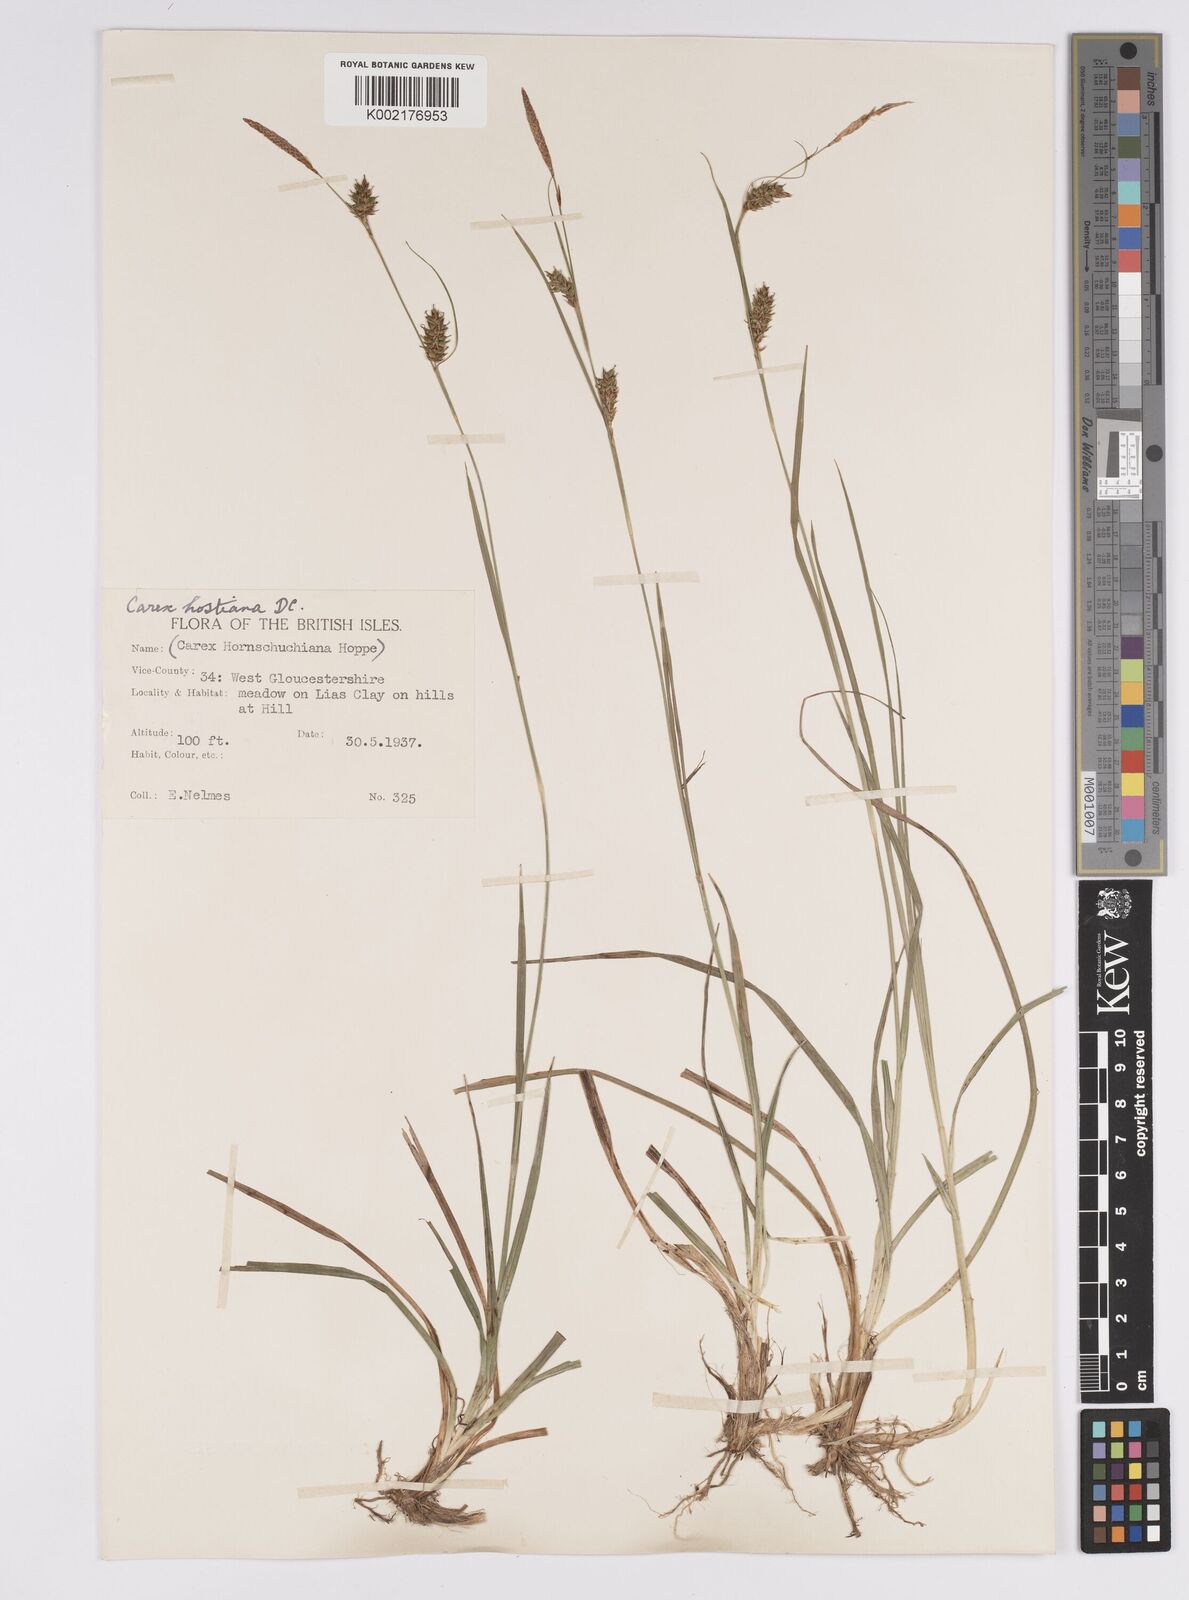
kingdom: Plantae
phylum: Tracheophyta
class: Liliopsida
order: Poales
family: Cyperaceae
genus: Carex
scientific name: Carex hostiana
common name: Tawny sedge
